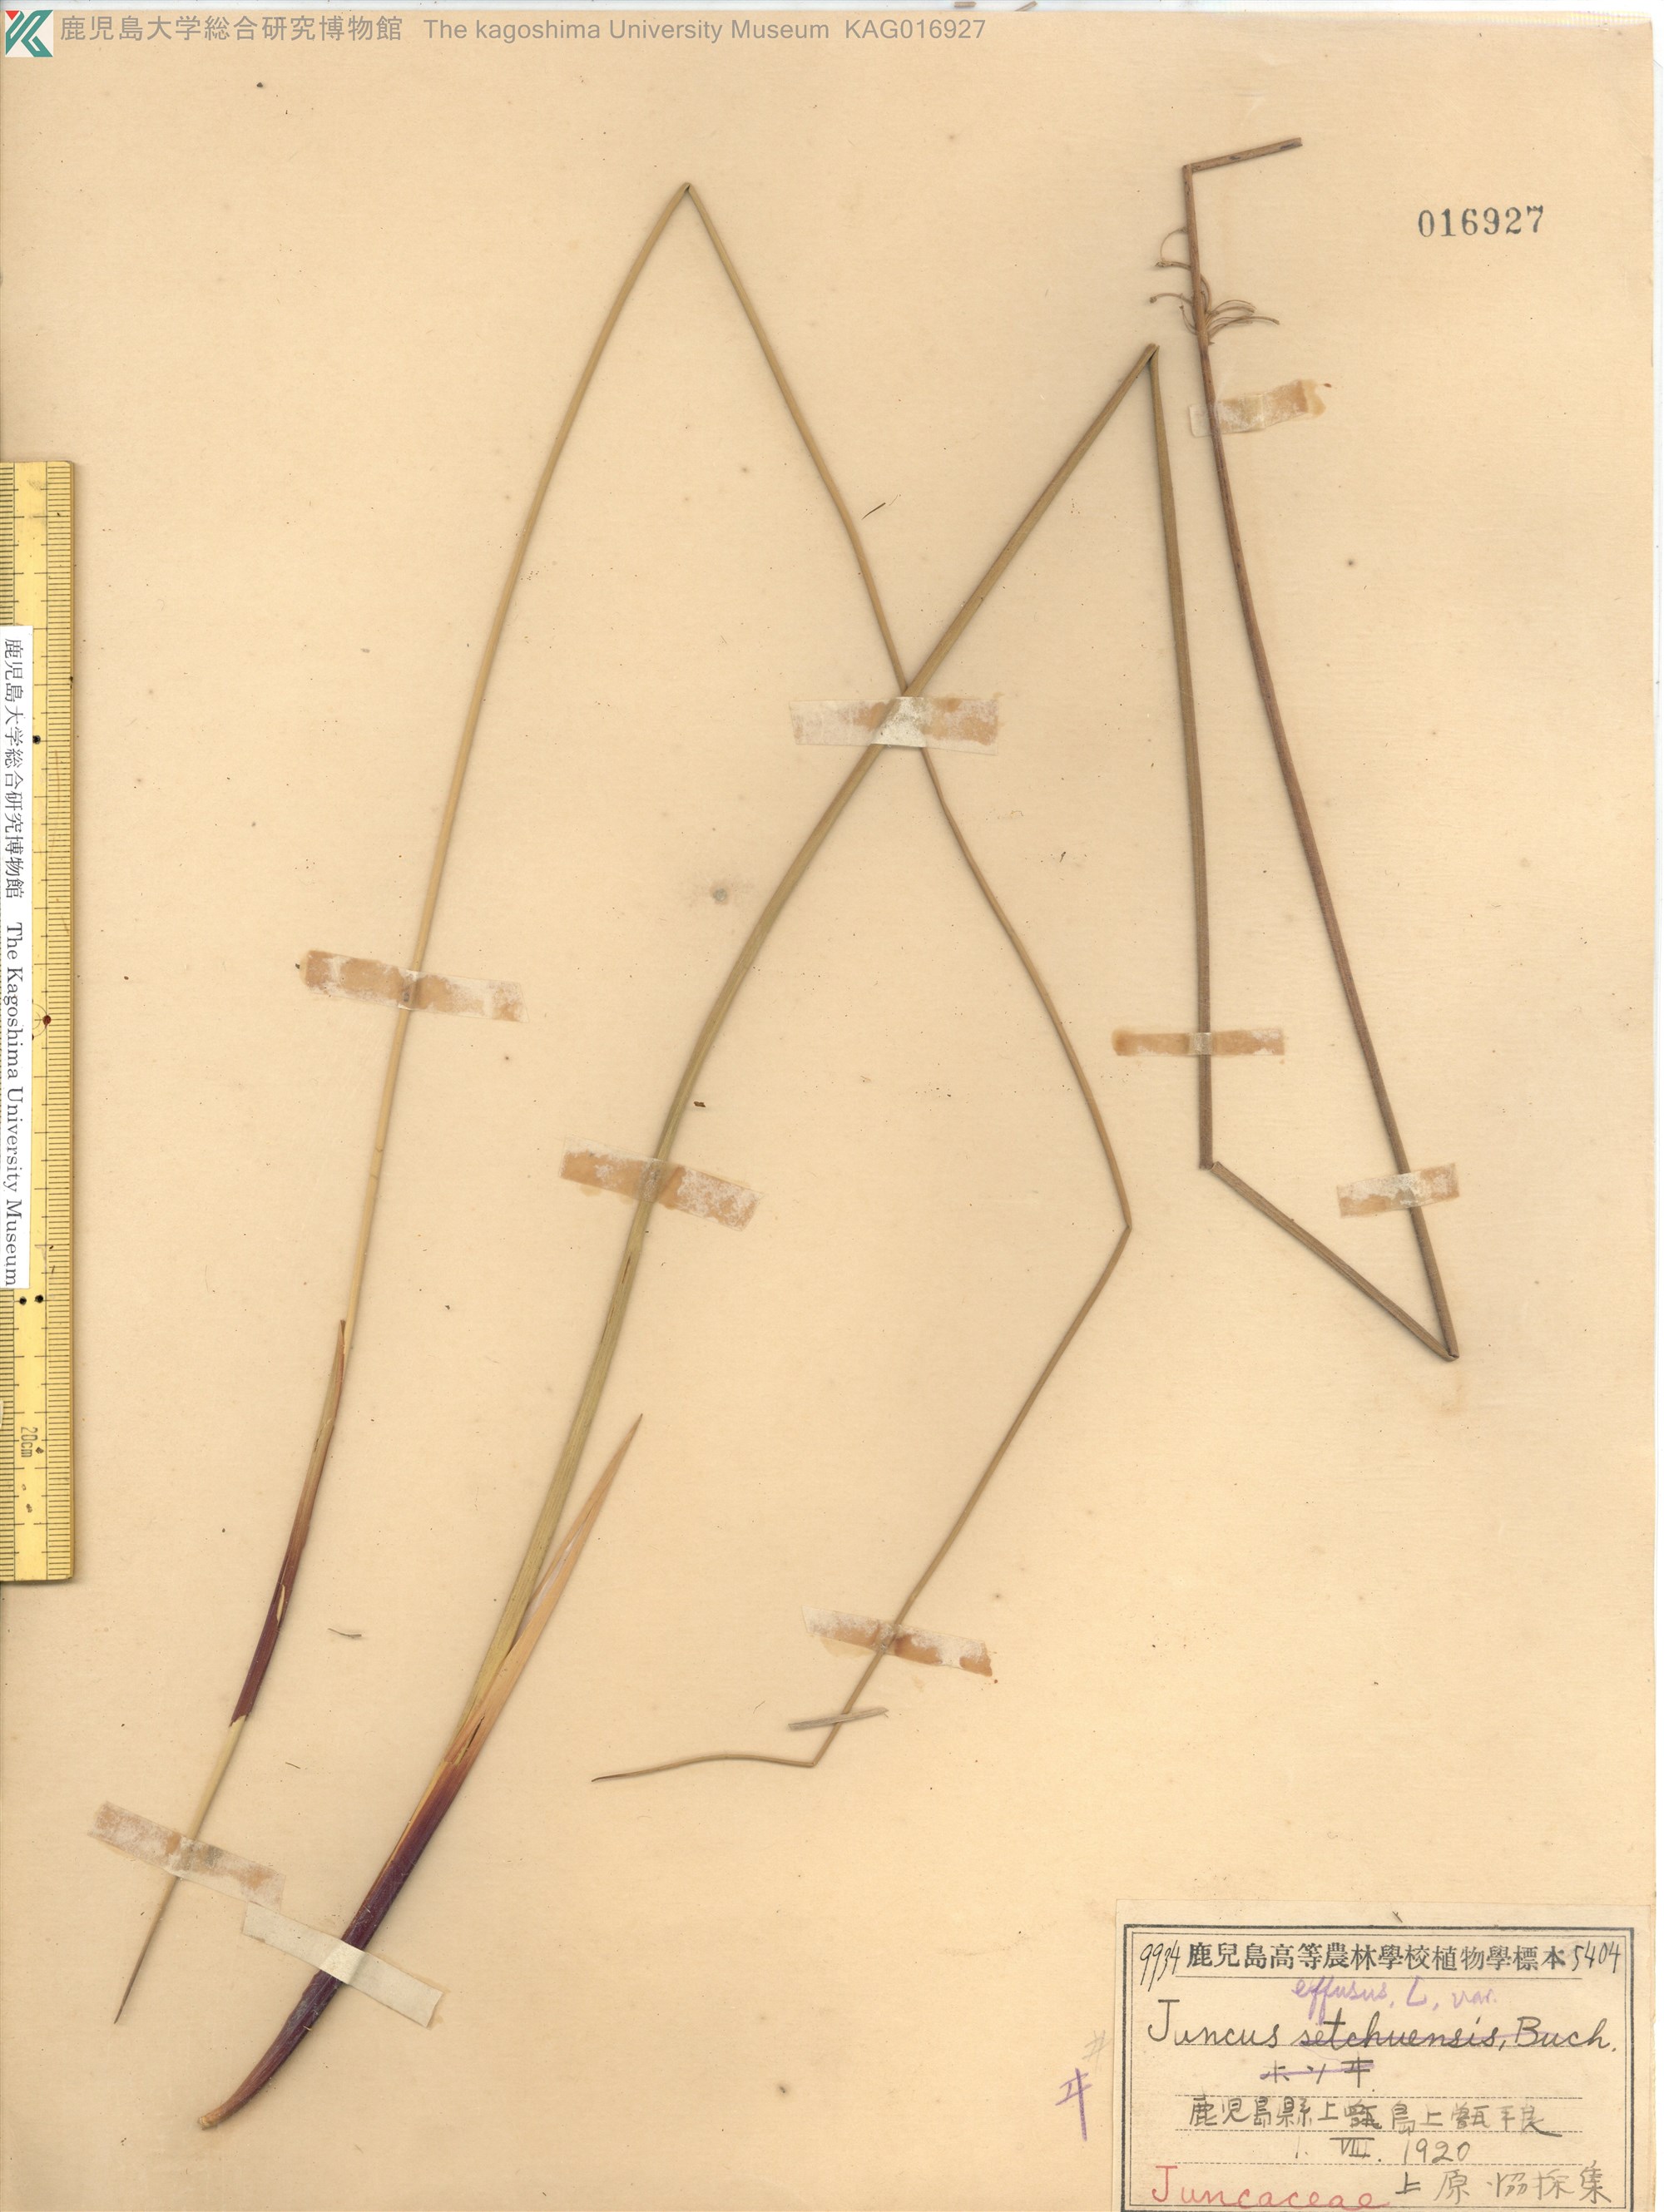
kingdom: Plantae
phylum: Tracheophyta
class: Liliopsida
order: Poales
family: Juncaceae
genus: Juncus
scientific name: Juncus decipiens
